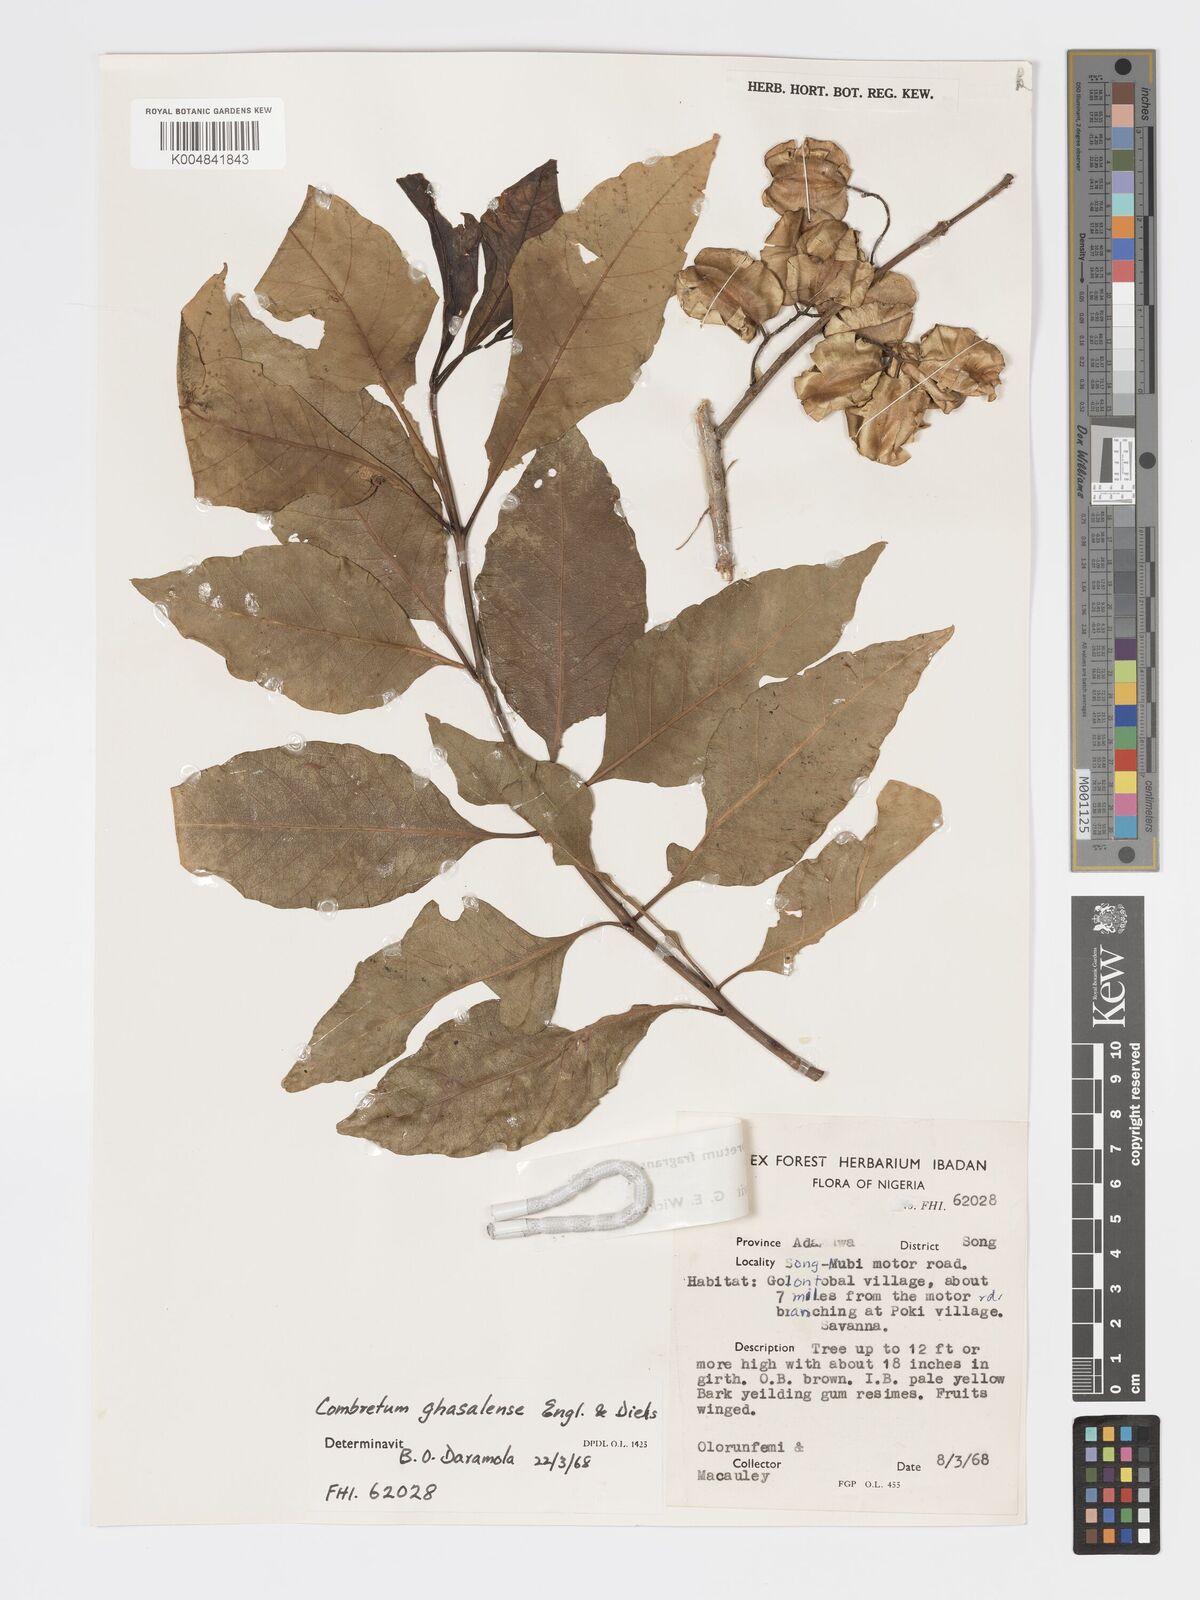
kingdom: Plantae
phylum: Tracheophyta
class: Magnoliopsida
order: Myrtales
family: Combretaceae
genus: Combretum
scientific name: Combretum adenogonium
